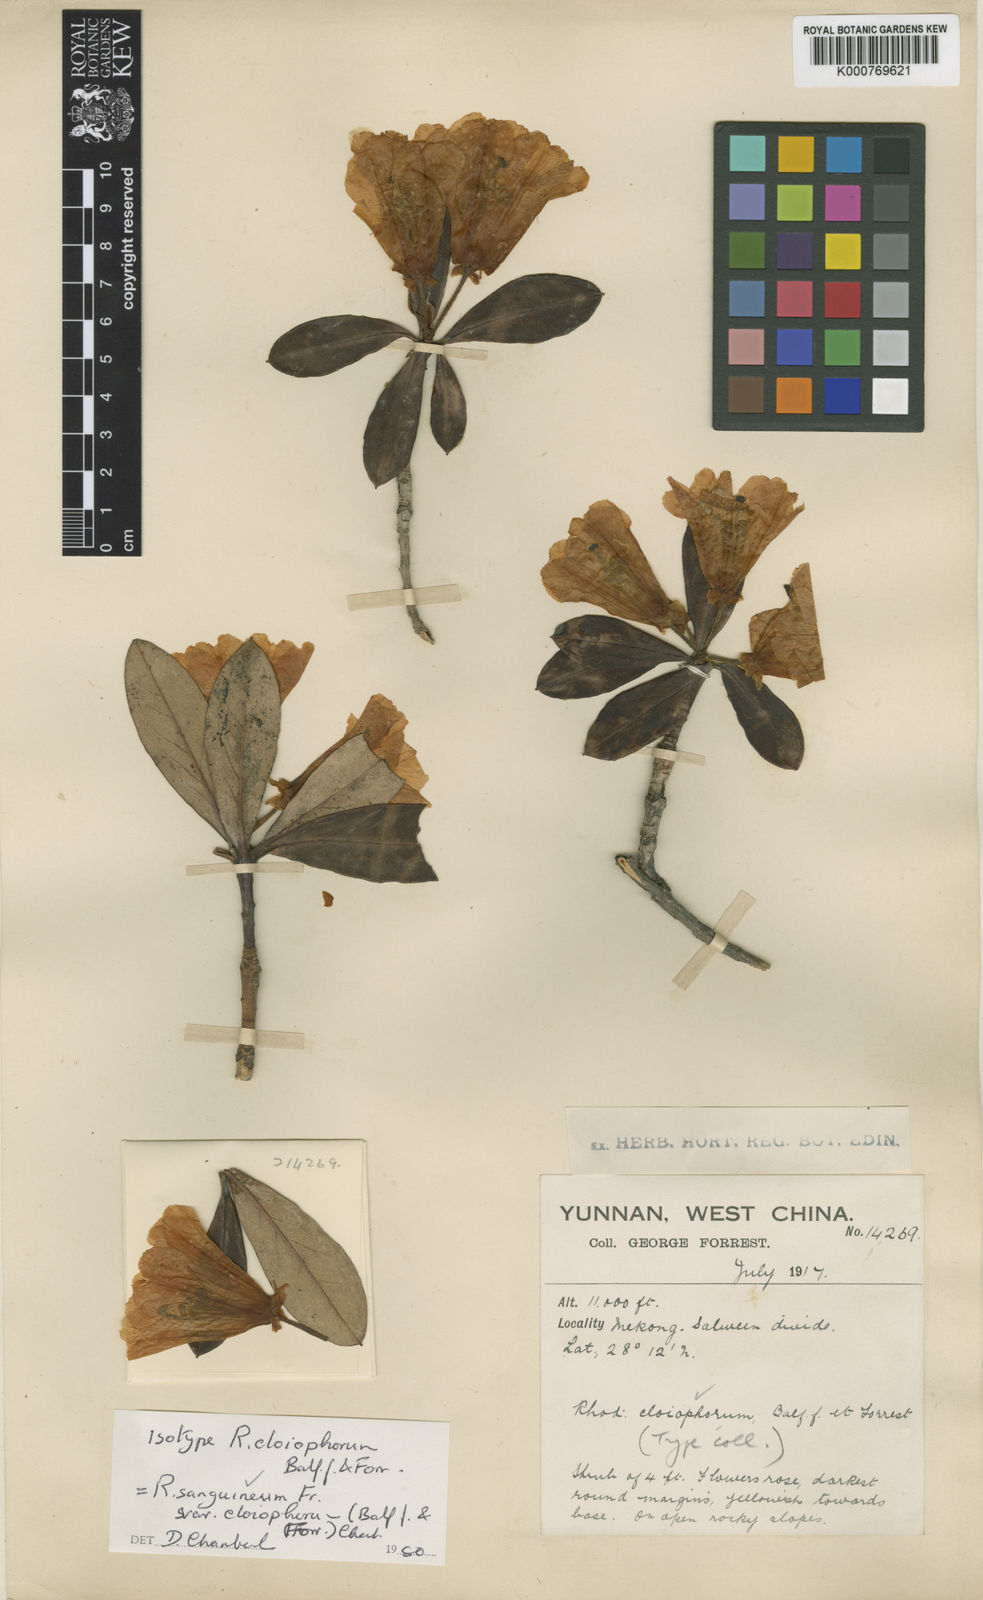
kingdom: Plantae
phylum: Tracheophyta
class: Magnoliopsida
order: Ericales
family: Ericaceae
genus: Rhododendron
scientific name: Rhododendron sanguineum
